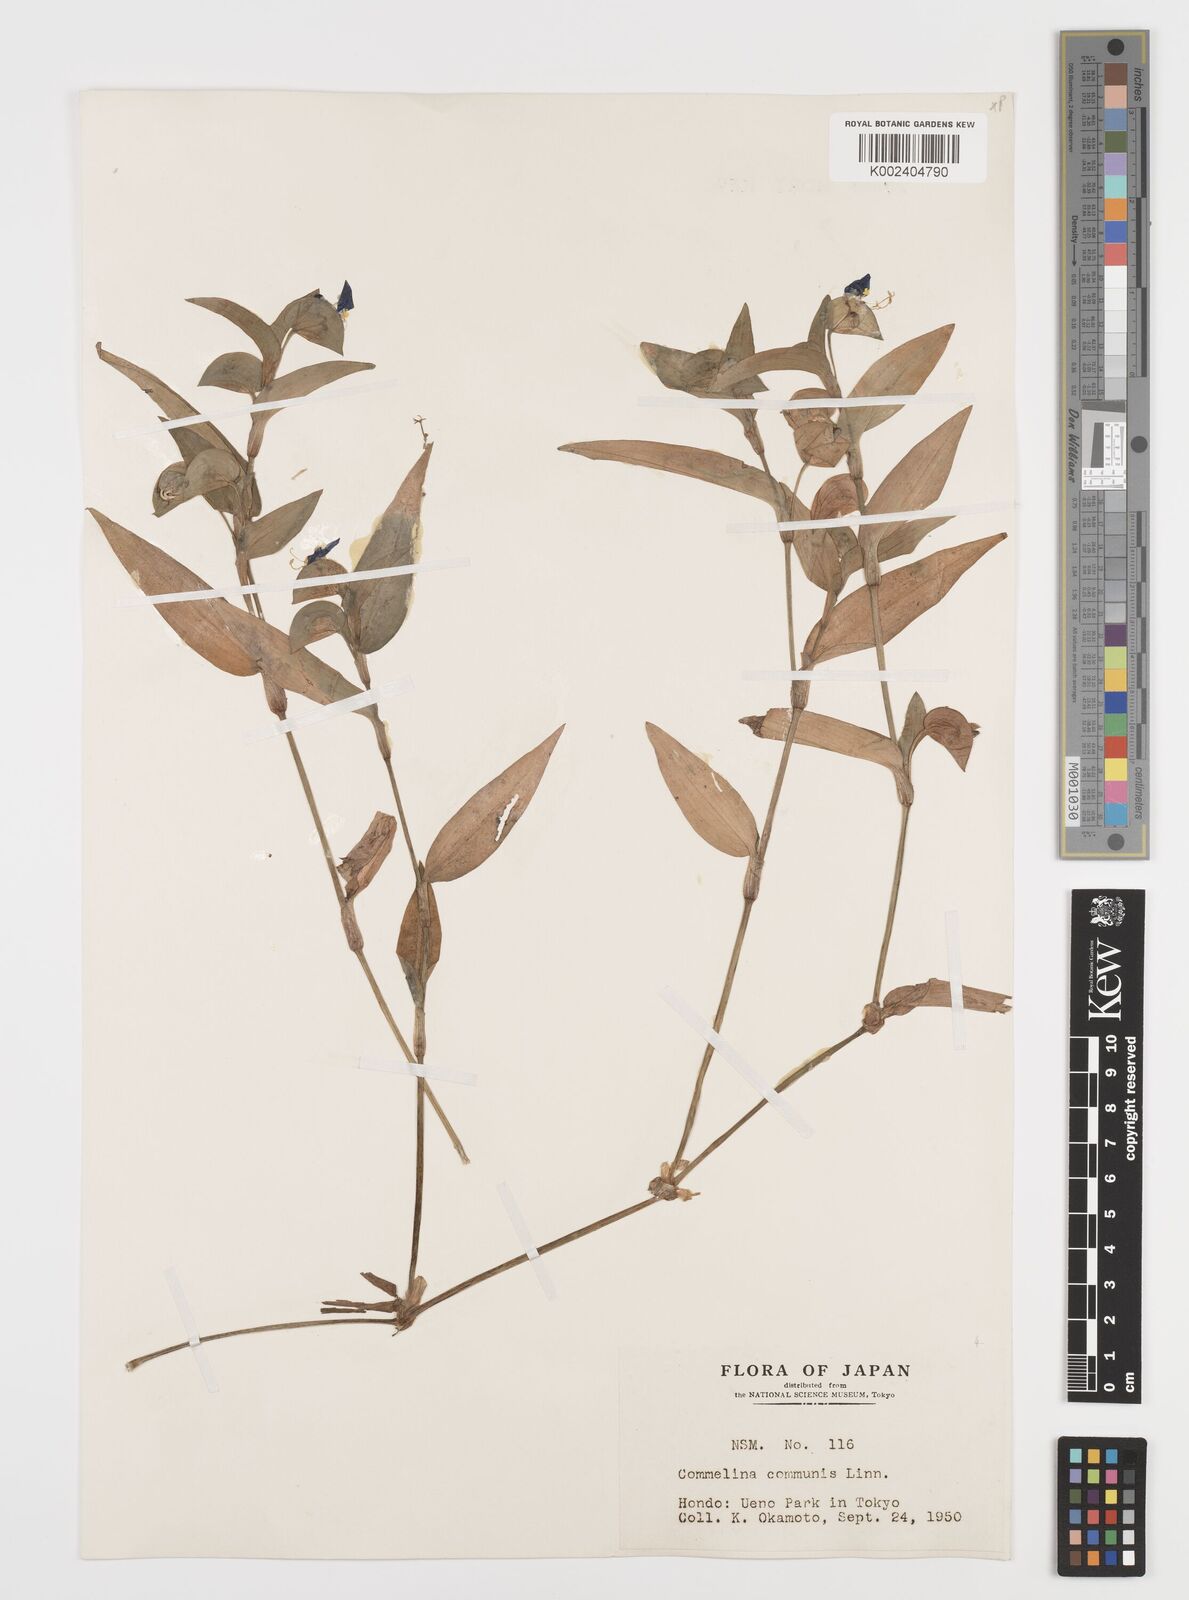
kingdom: Plantae
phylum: Tracheophyta
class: Liliopsida
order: Commelinales
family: Commelinaceae
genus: Commelina
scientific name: Commelina communis
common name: Asiatic dayflower
